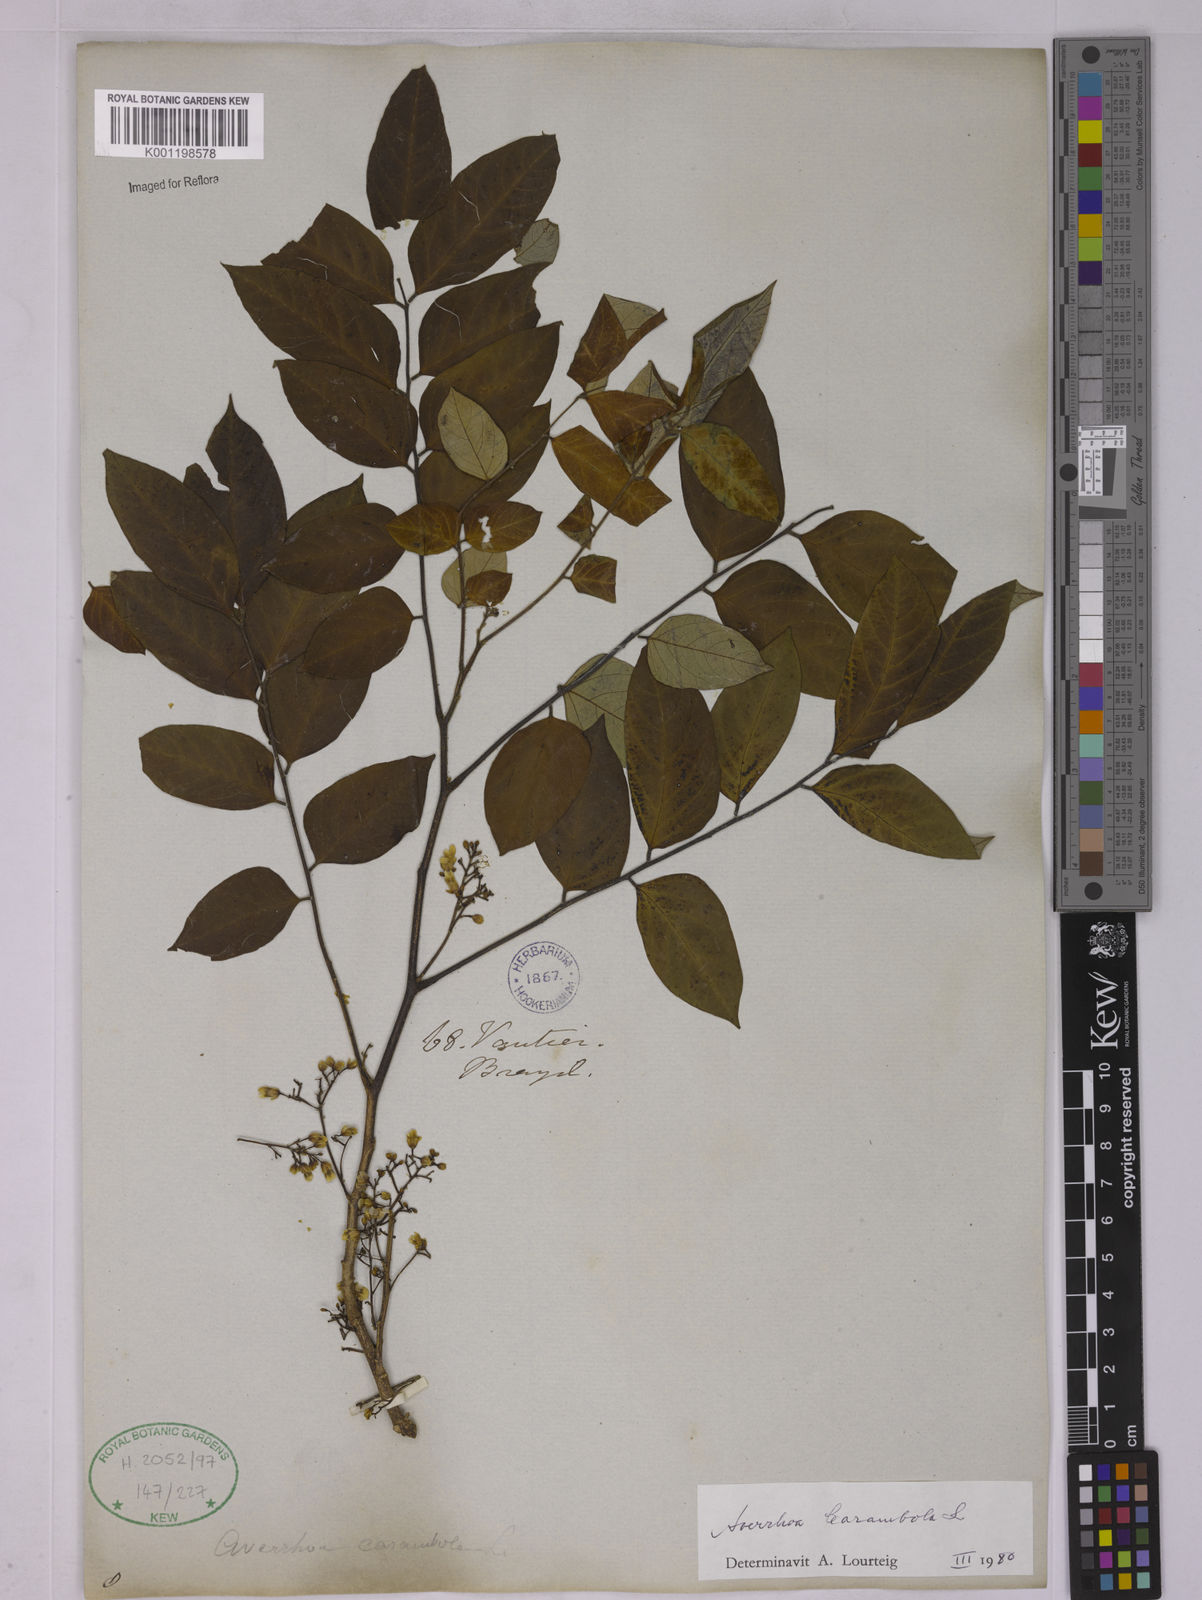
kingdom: Plantae
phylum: Tracheophyta
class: Magnoliopsida
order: Oxalidales
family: Oxalidaceae
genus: Averrhoa
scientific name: Averrhoa carambola
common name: Blimbing
